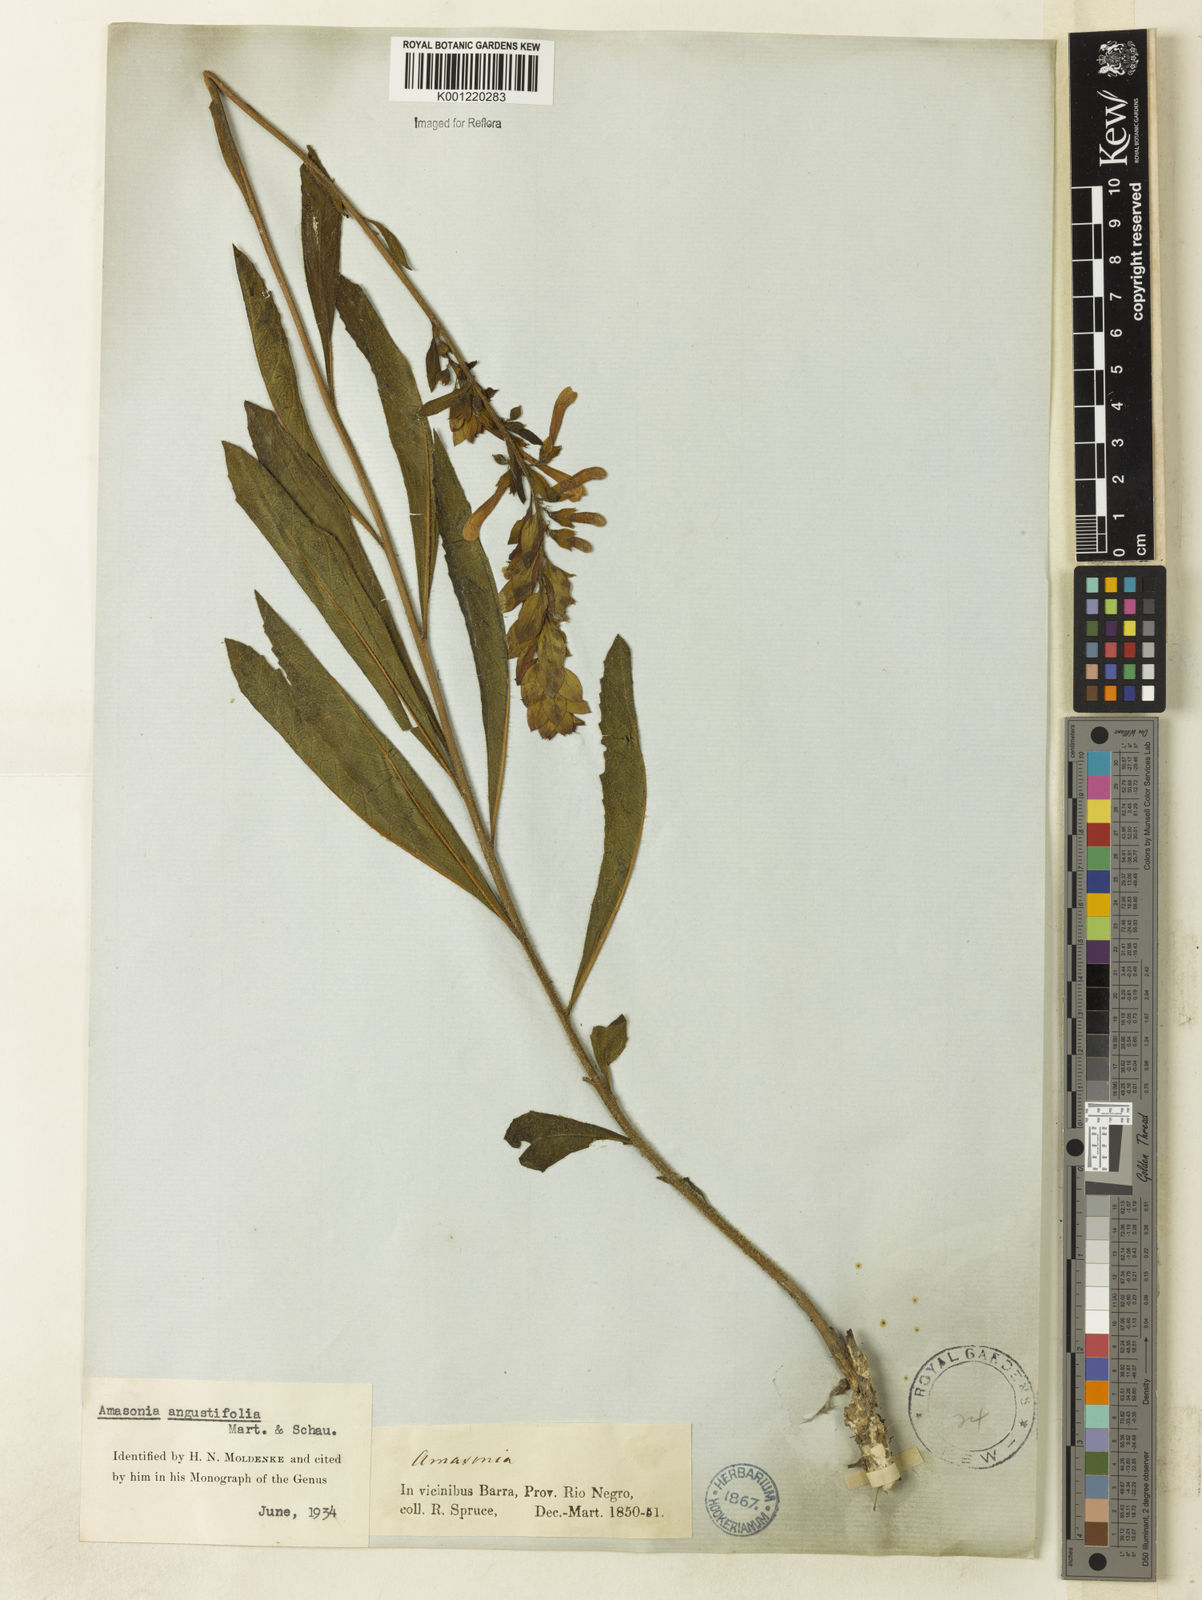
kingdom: Plantae
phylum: Tracheophyta
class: Magnoliopsida
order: Lamiales
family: Lamiaceae
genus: Amasonia
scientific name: Amasonia angustifolia
